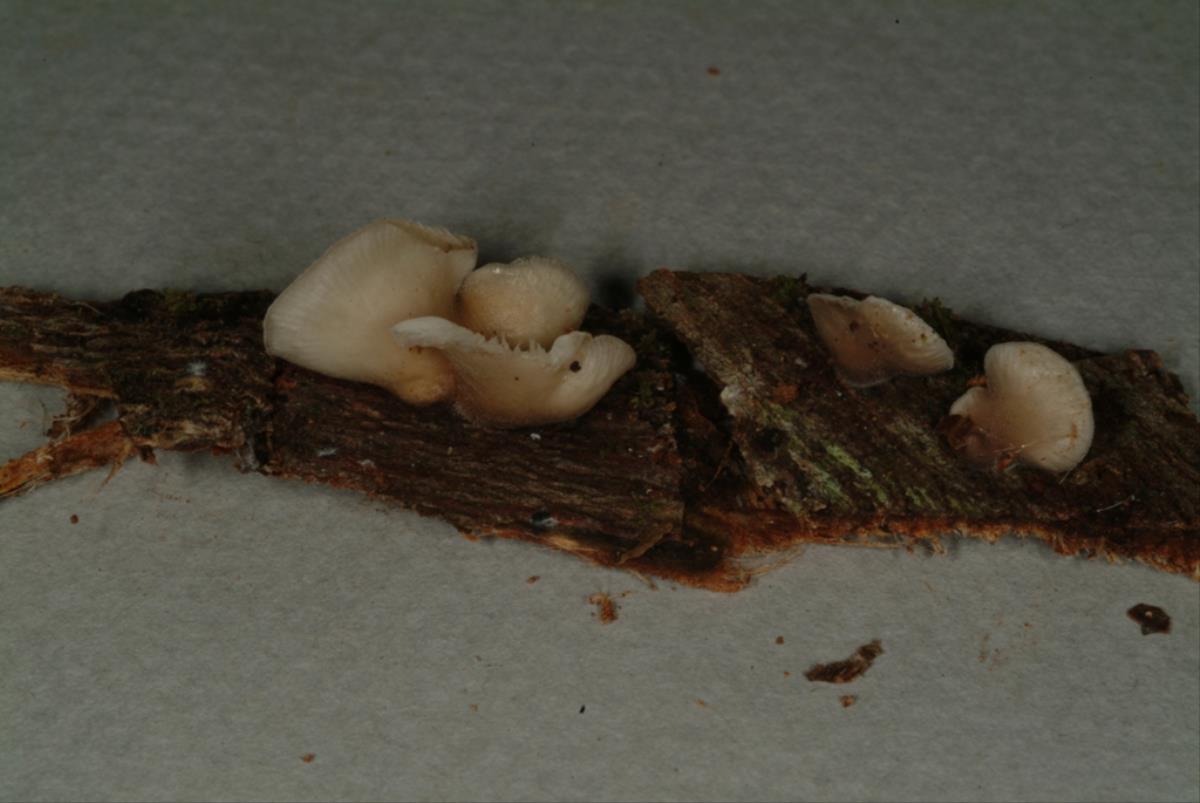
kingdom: Fungi
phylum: Basidiomycota
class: Agaricomycetes
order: Agaricales
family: Pleurotaceae
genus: Hohenbuehelia
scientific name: Hohenbuehelia
